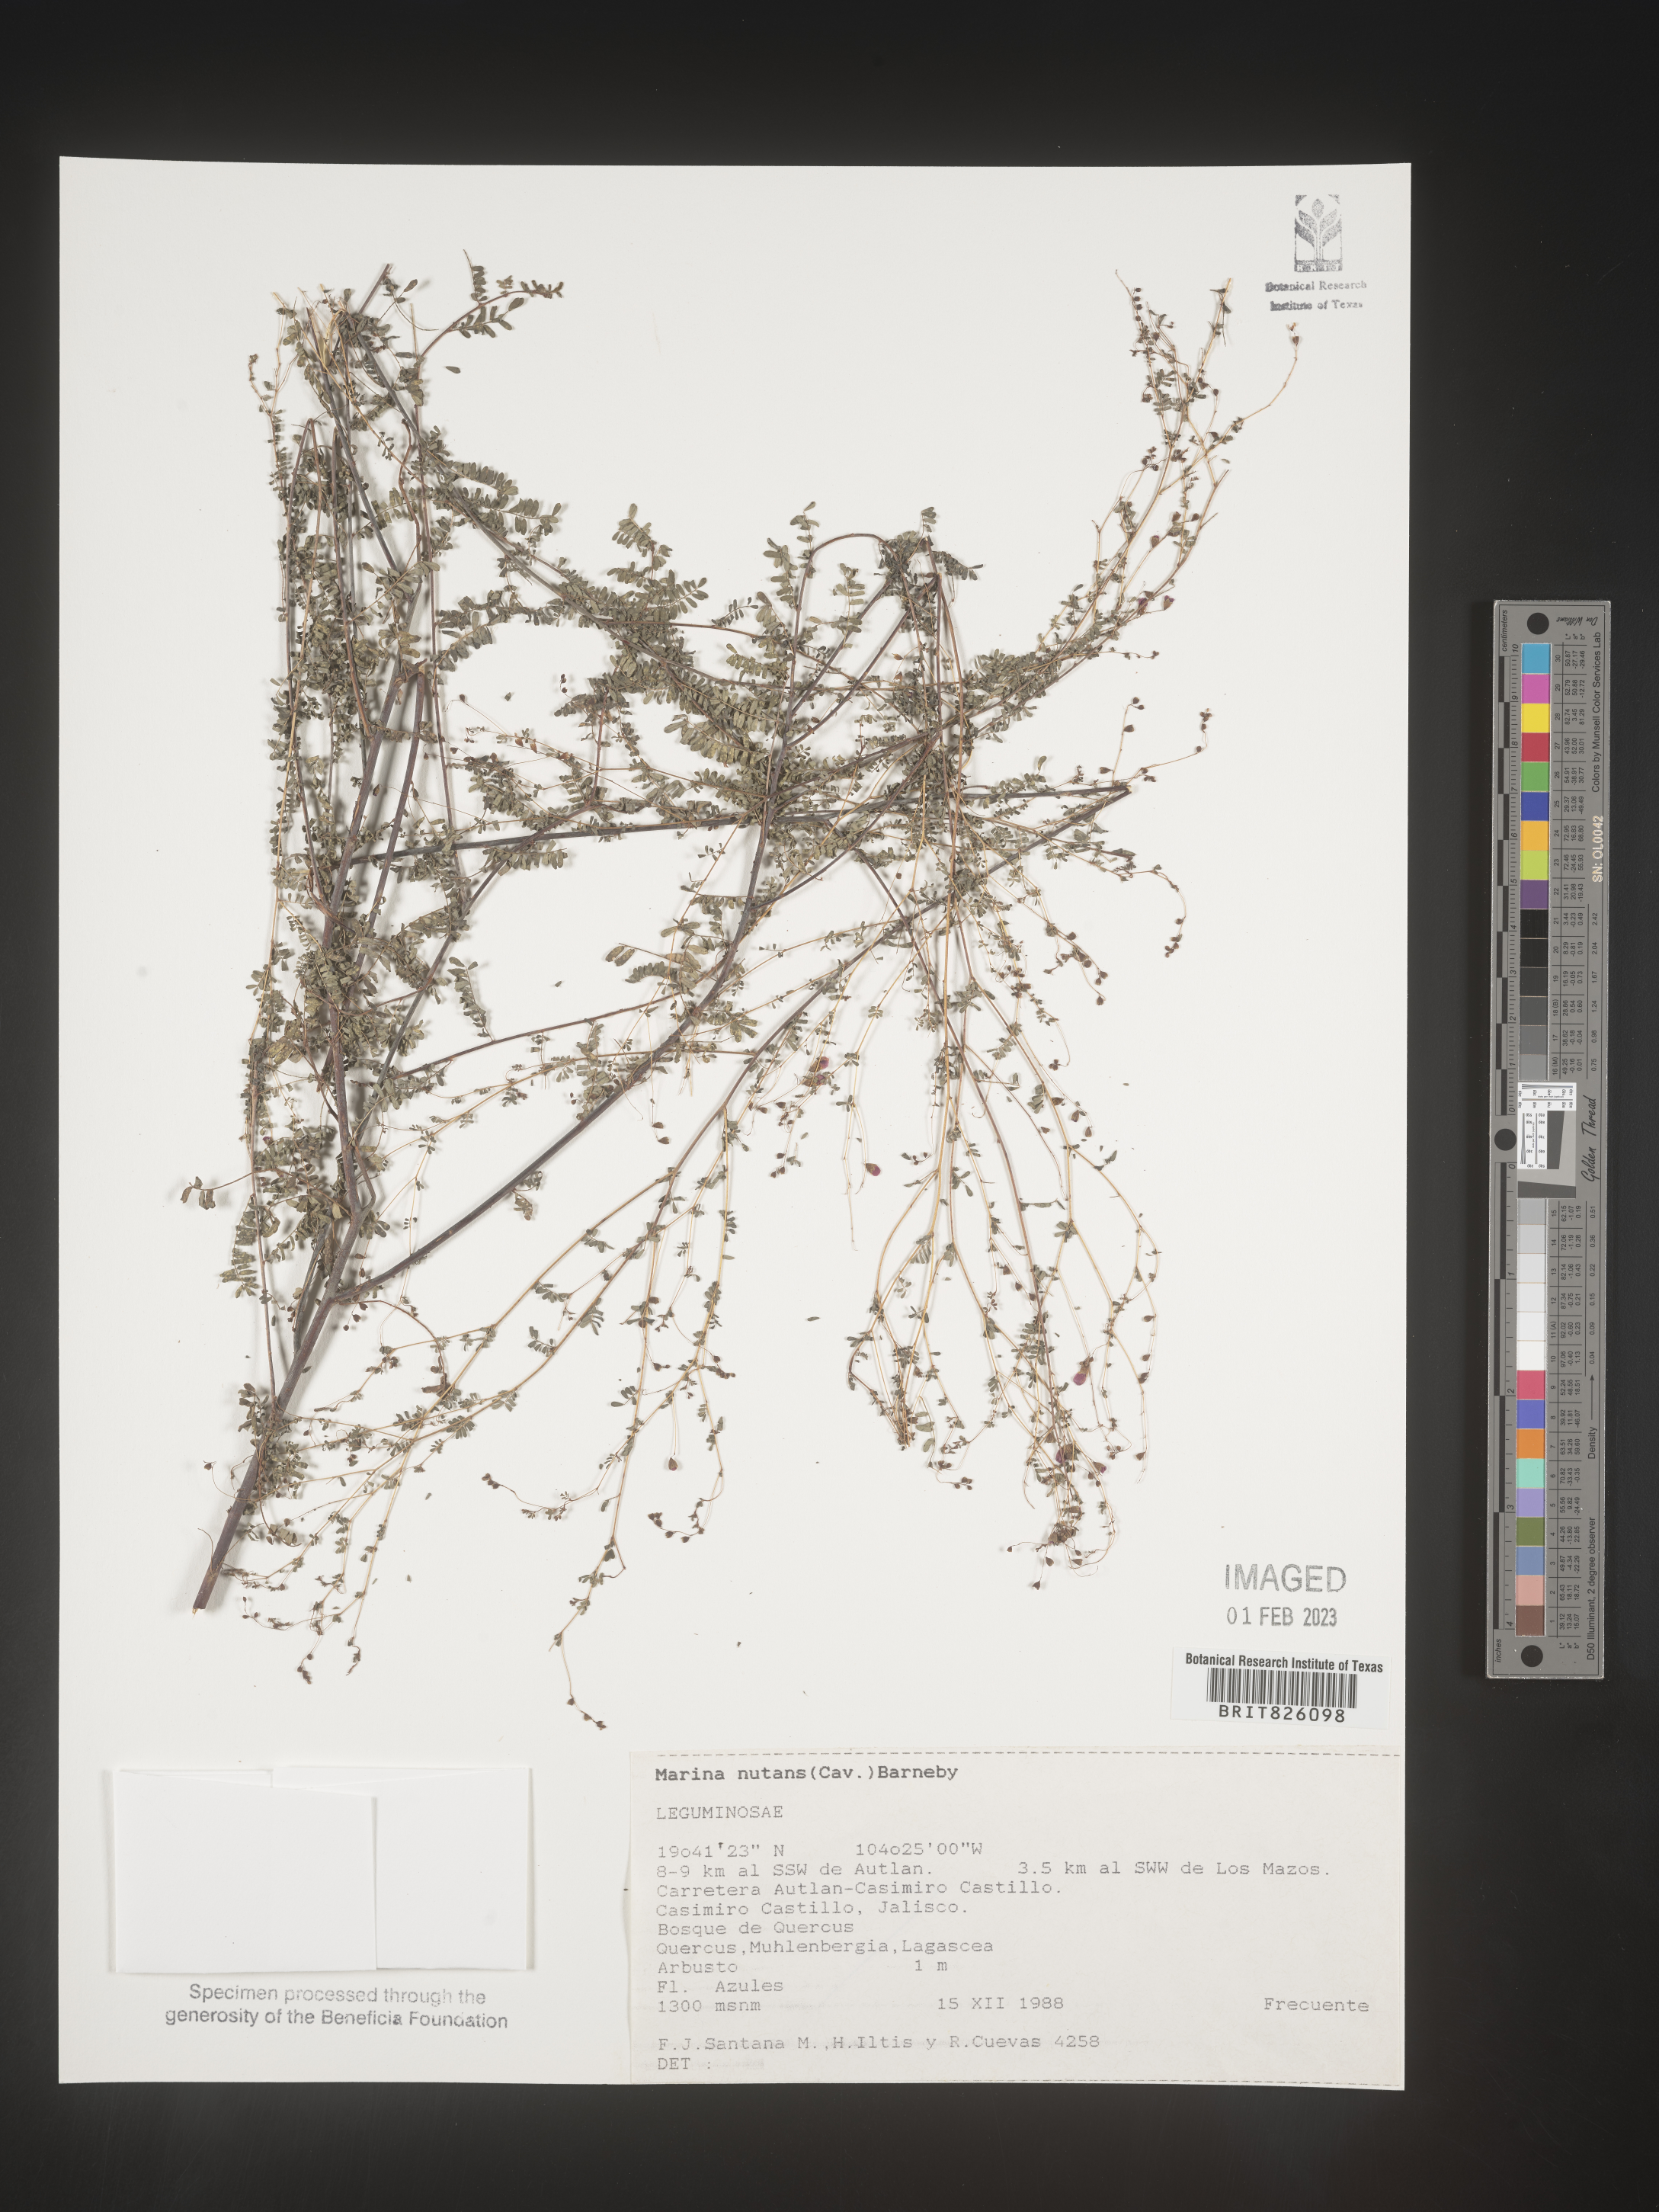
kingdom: Plantae
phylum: Tracheophyta
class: Magnoliopsida
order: Fabales
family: Fabaceae
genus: Marina
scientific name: Marina
